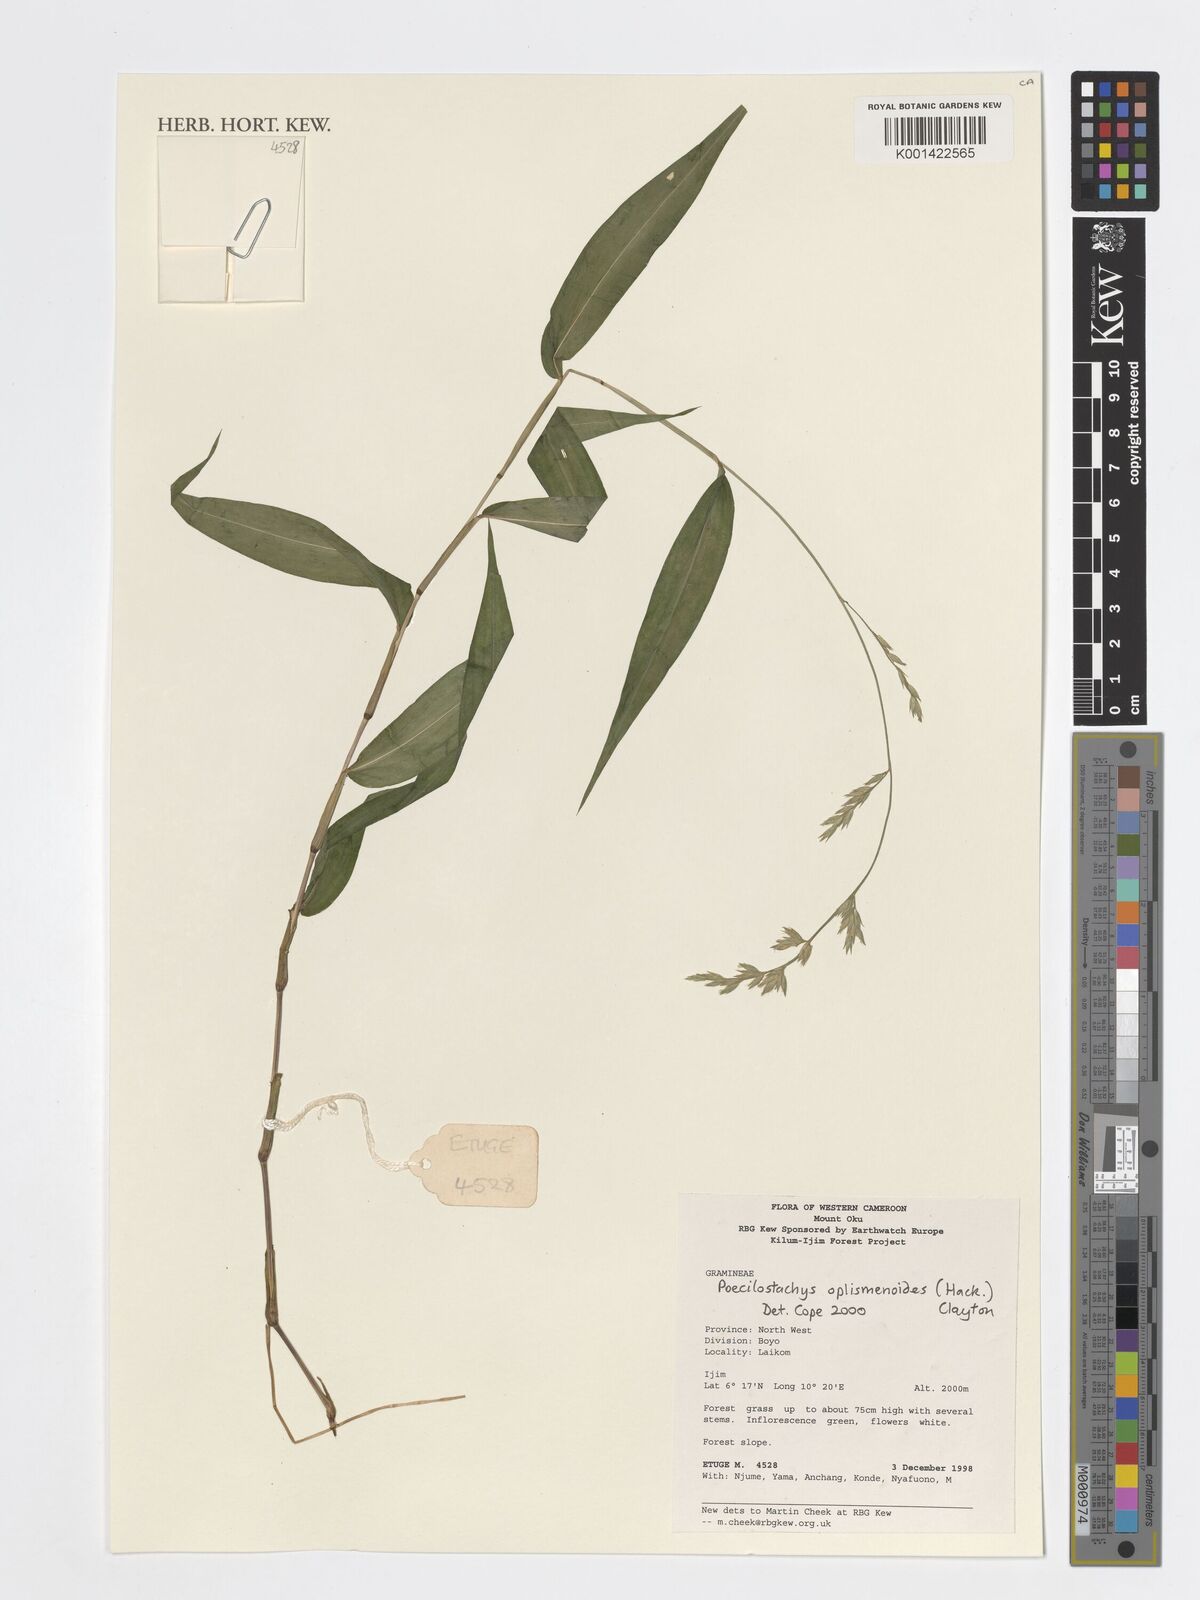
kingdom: Plantae
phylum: Tracheophyta
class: Liliopsida
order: Poales
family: Poaceae
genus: Poecilostachys
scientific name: Poecilostachys oplismenoides
